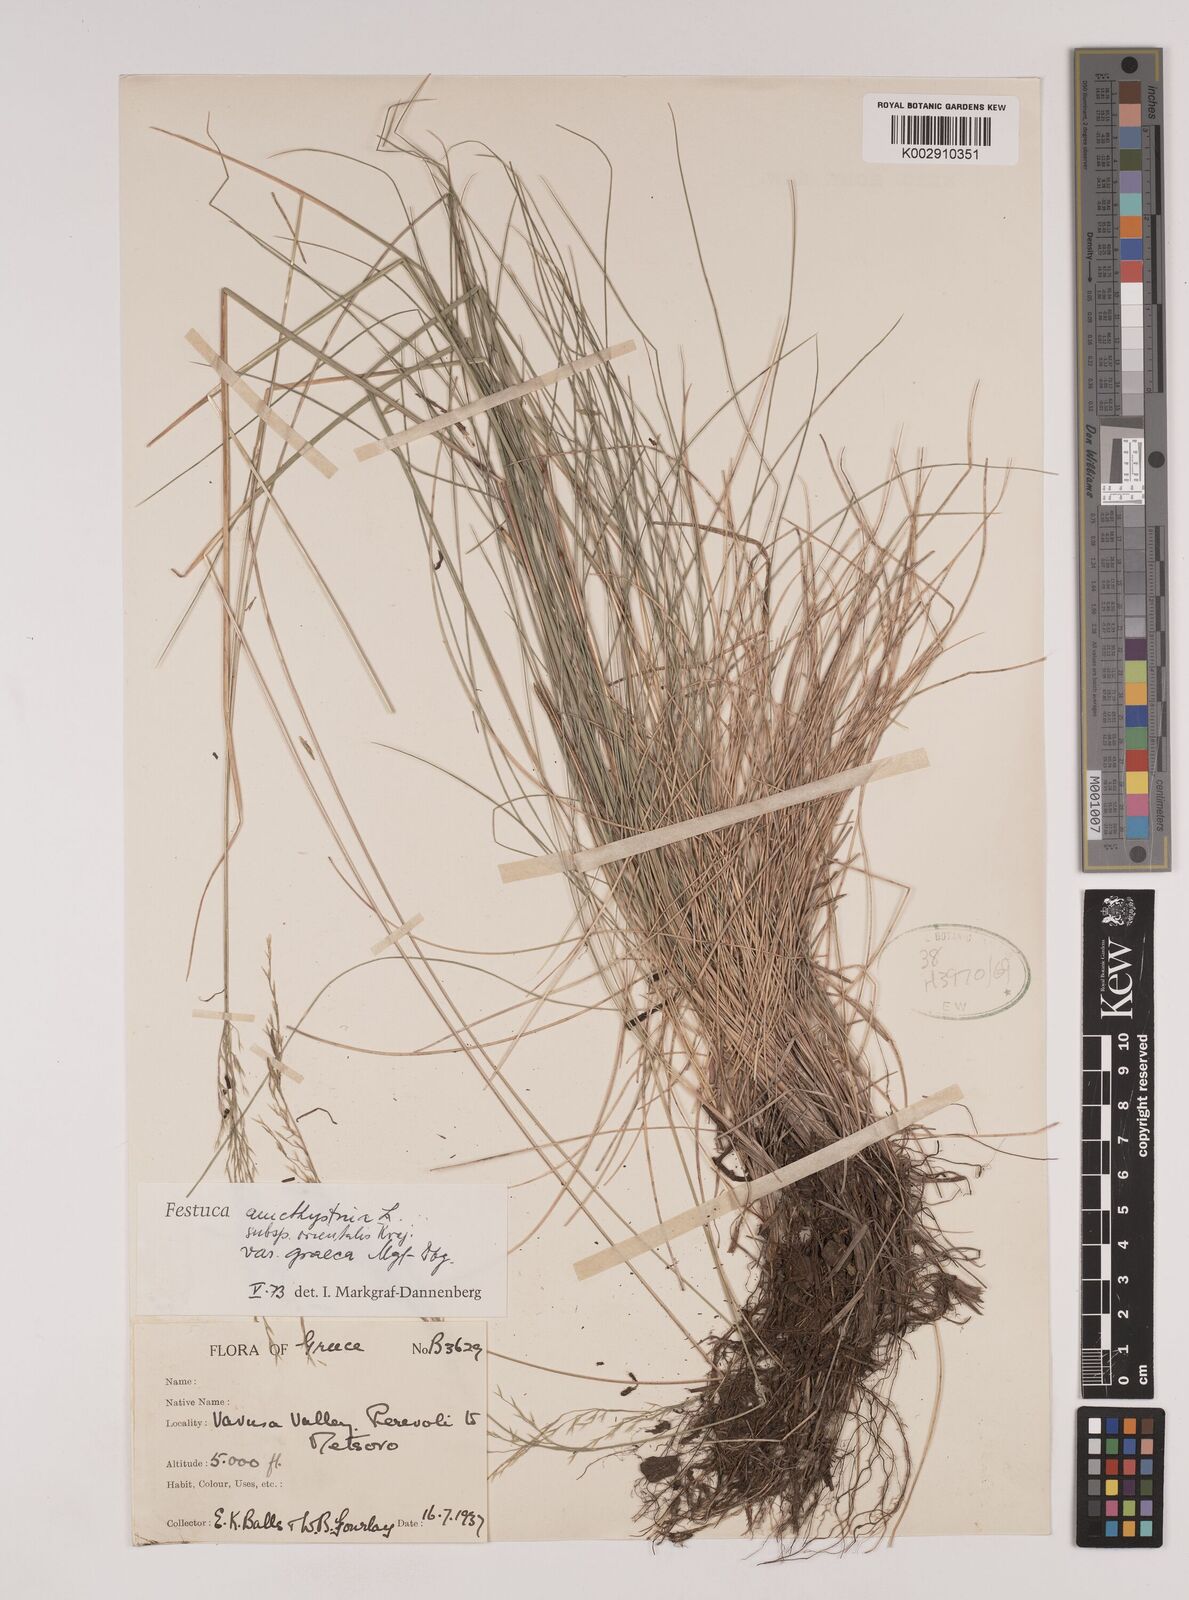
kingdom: Plantae
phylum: Tracheophyta
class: Liliopsida
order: Poales
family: Poaceae
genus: Festuca
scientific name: Festuca amethystina
